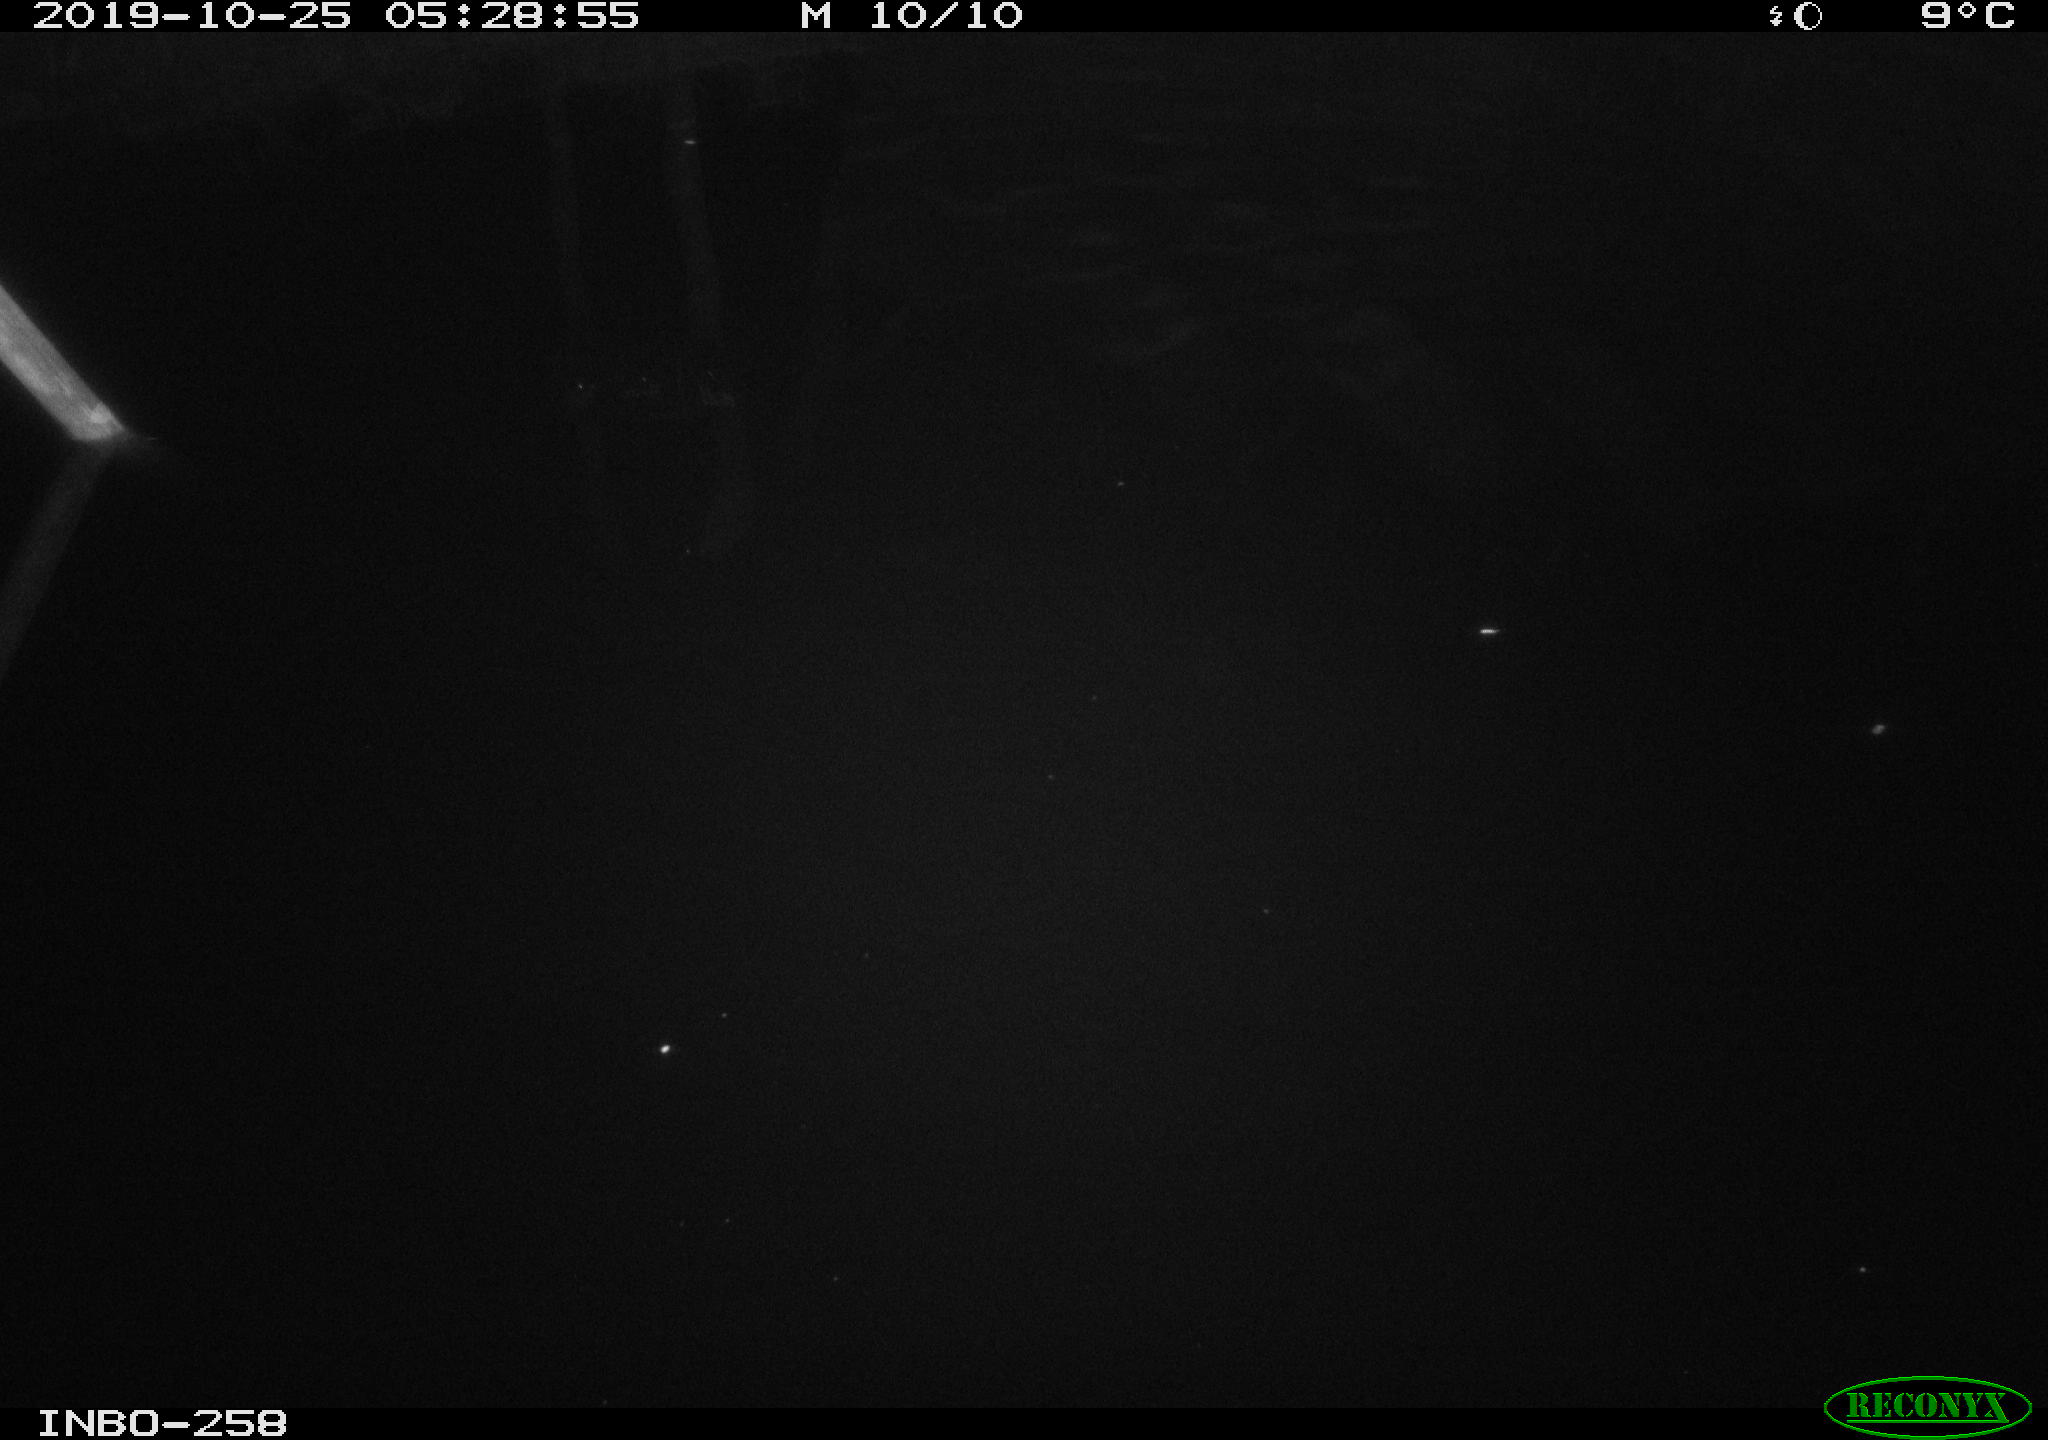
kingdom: Animalia
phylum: Chordata
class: Mammalia
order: Rodentia
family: Muridae
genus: Rattus
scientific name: Rattus norvegicus
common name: Brown rat
